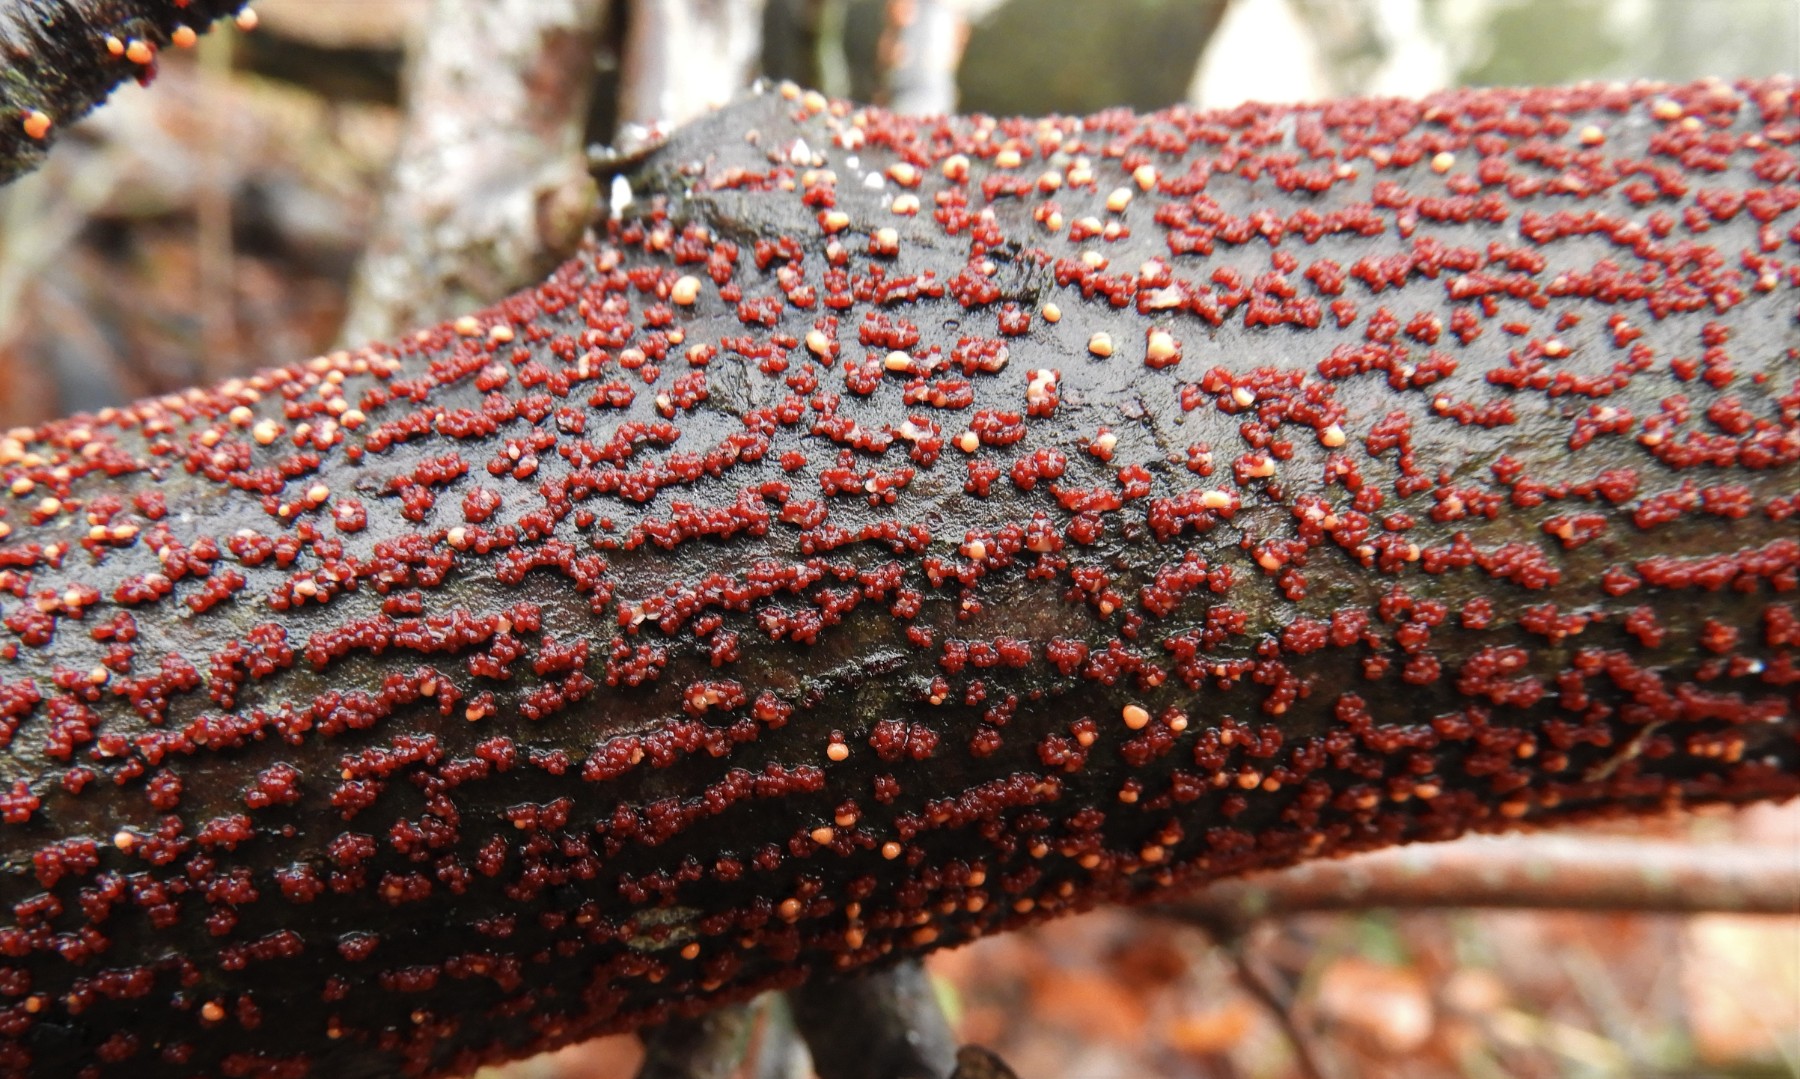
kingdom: Fungi
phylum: Ascomycota
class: Sordariomycetes
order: Hypocreales
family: Nectriaceae
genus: Nectria
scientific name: Nectria cinnabarina
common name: almindelig cinnobersvamp
